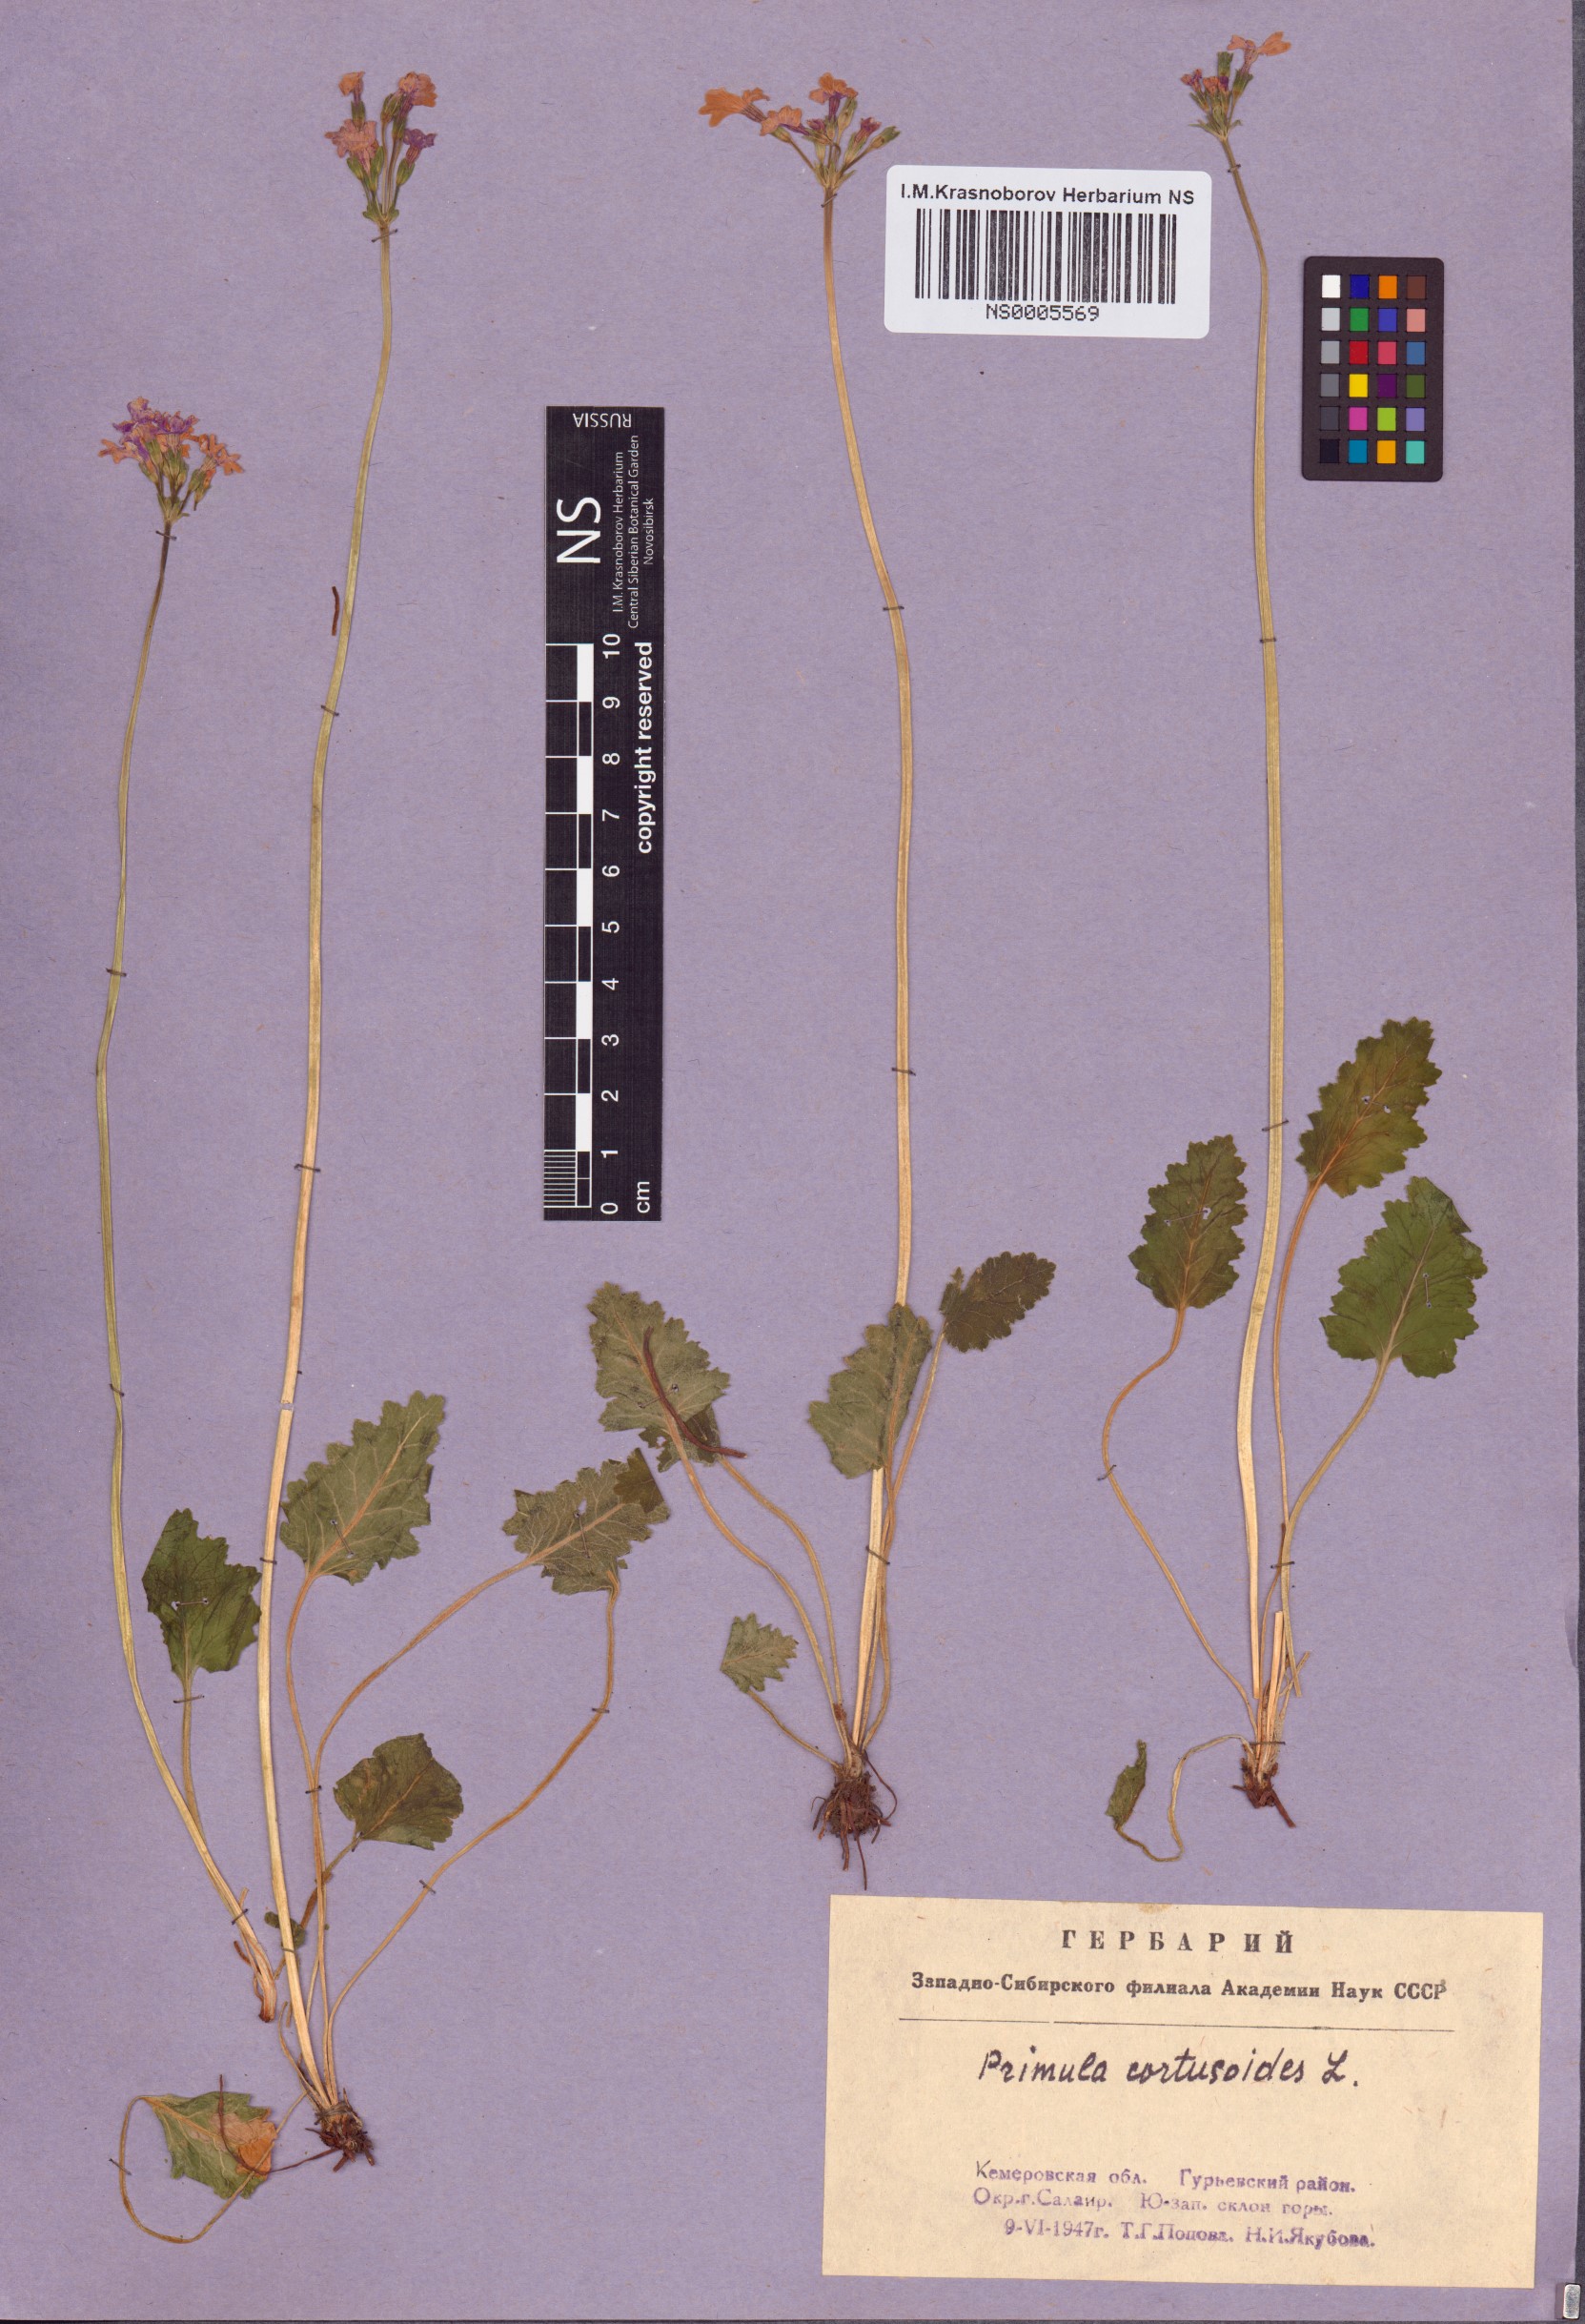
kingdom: Plantae
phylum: Tracheophyta
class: Magnoliopsida
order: Ericales
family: Primulaceae
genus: Primula
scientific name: Primula cortusoides
